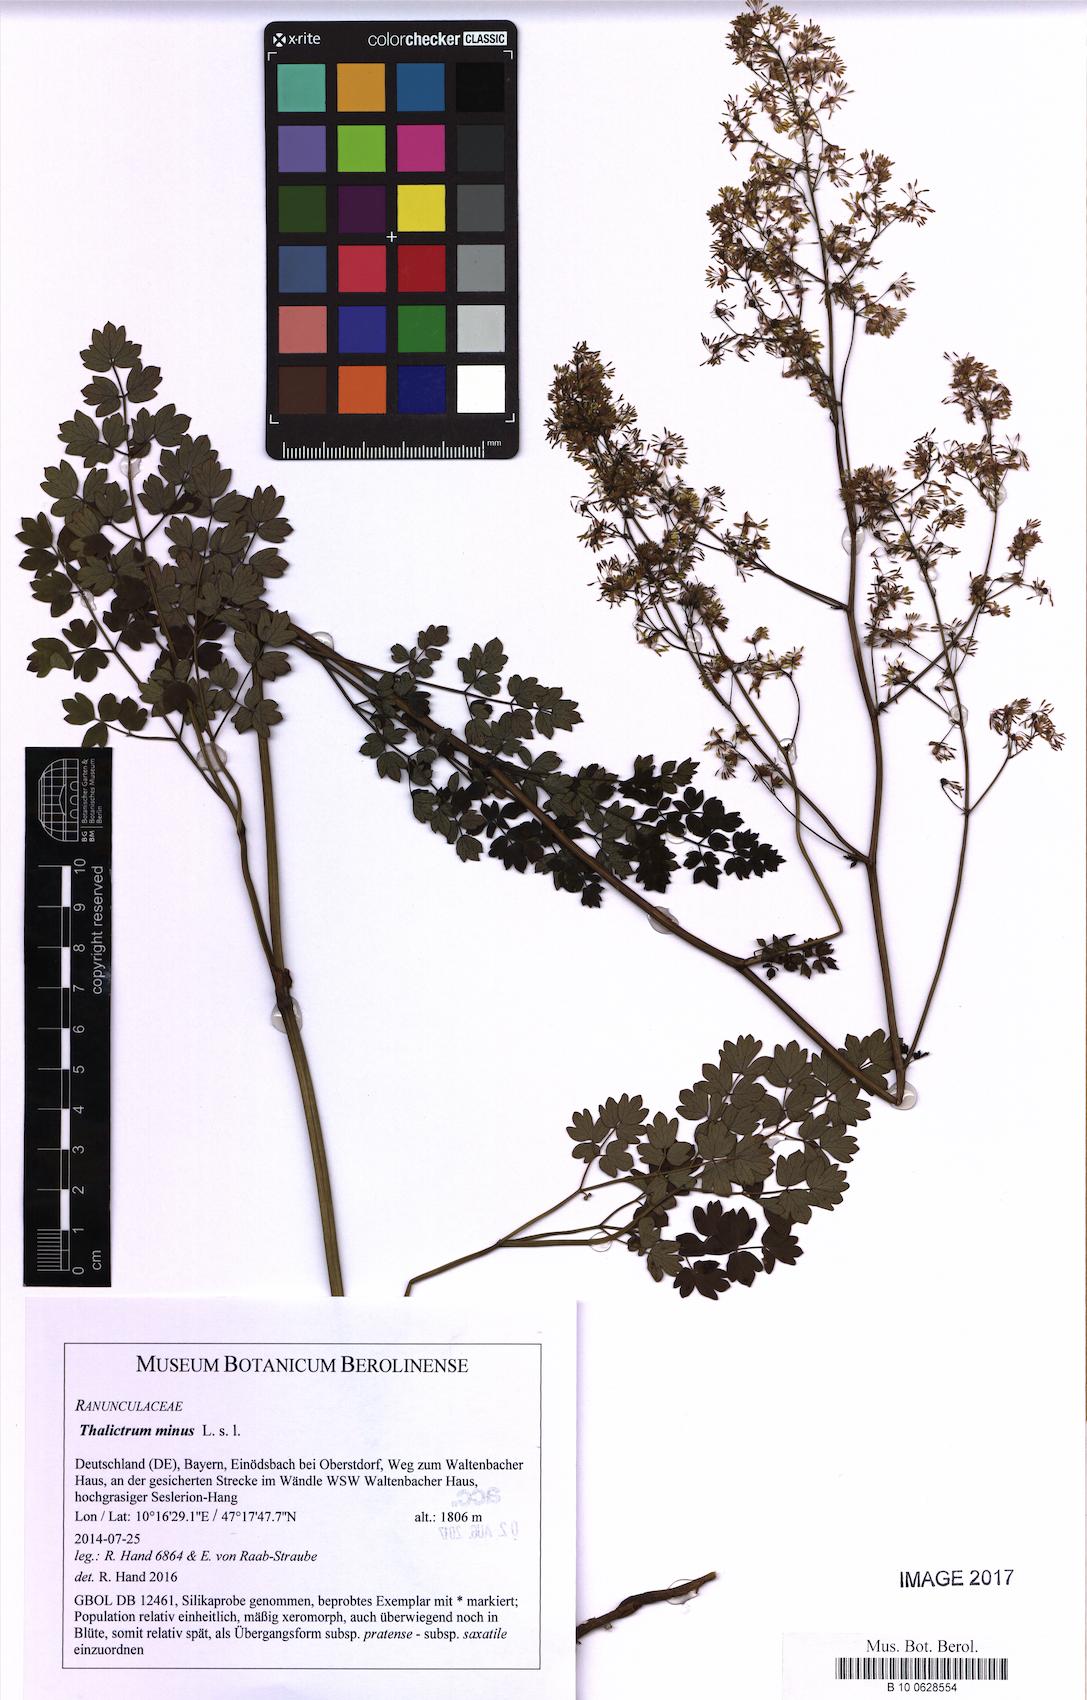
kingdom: Plantae
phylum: Tracheophyta
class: Magnoliopsida
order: Ranunculales
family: Ranunculaceae
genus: Thalictrum
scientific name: Thalictrum minus
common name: Lesser meadow-rue
